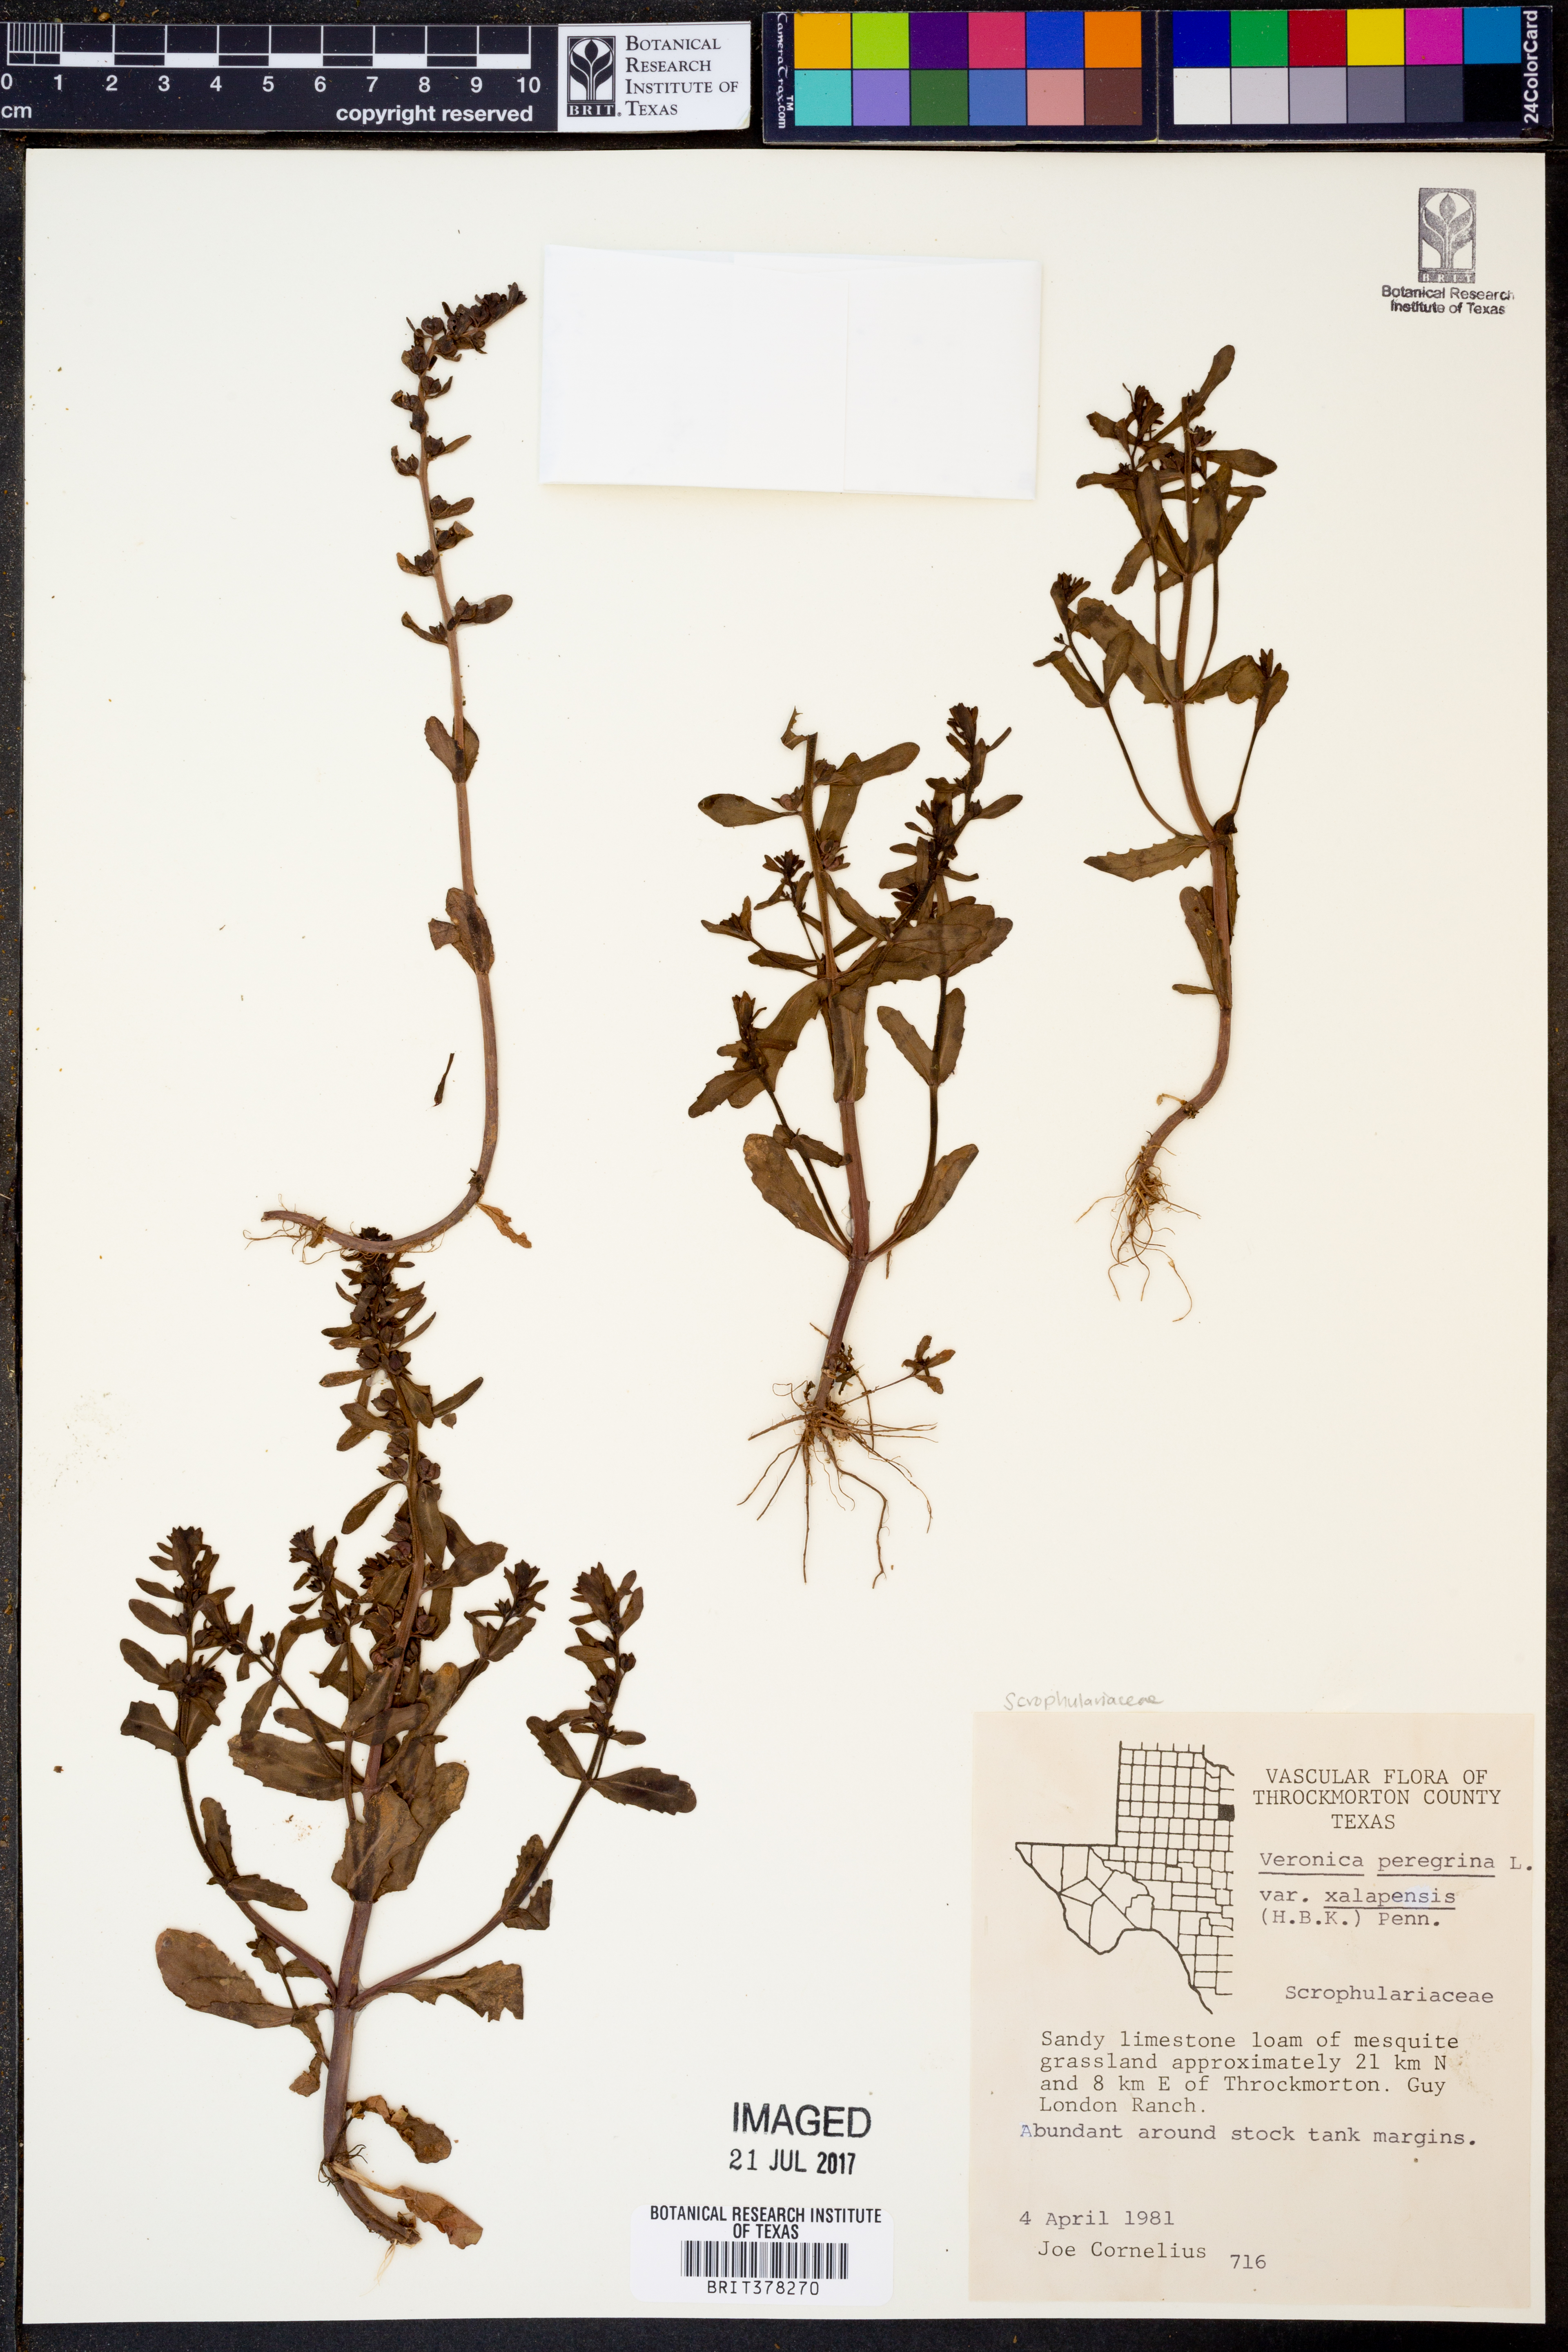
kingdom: Plantae
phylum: Tracheophyta
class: Magnoliopsida
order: Lamiales
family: Plantaginaceae
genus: Veronica
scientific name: Veronica peregrina
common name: Neckweed
